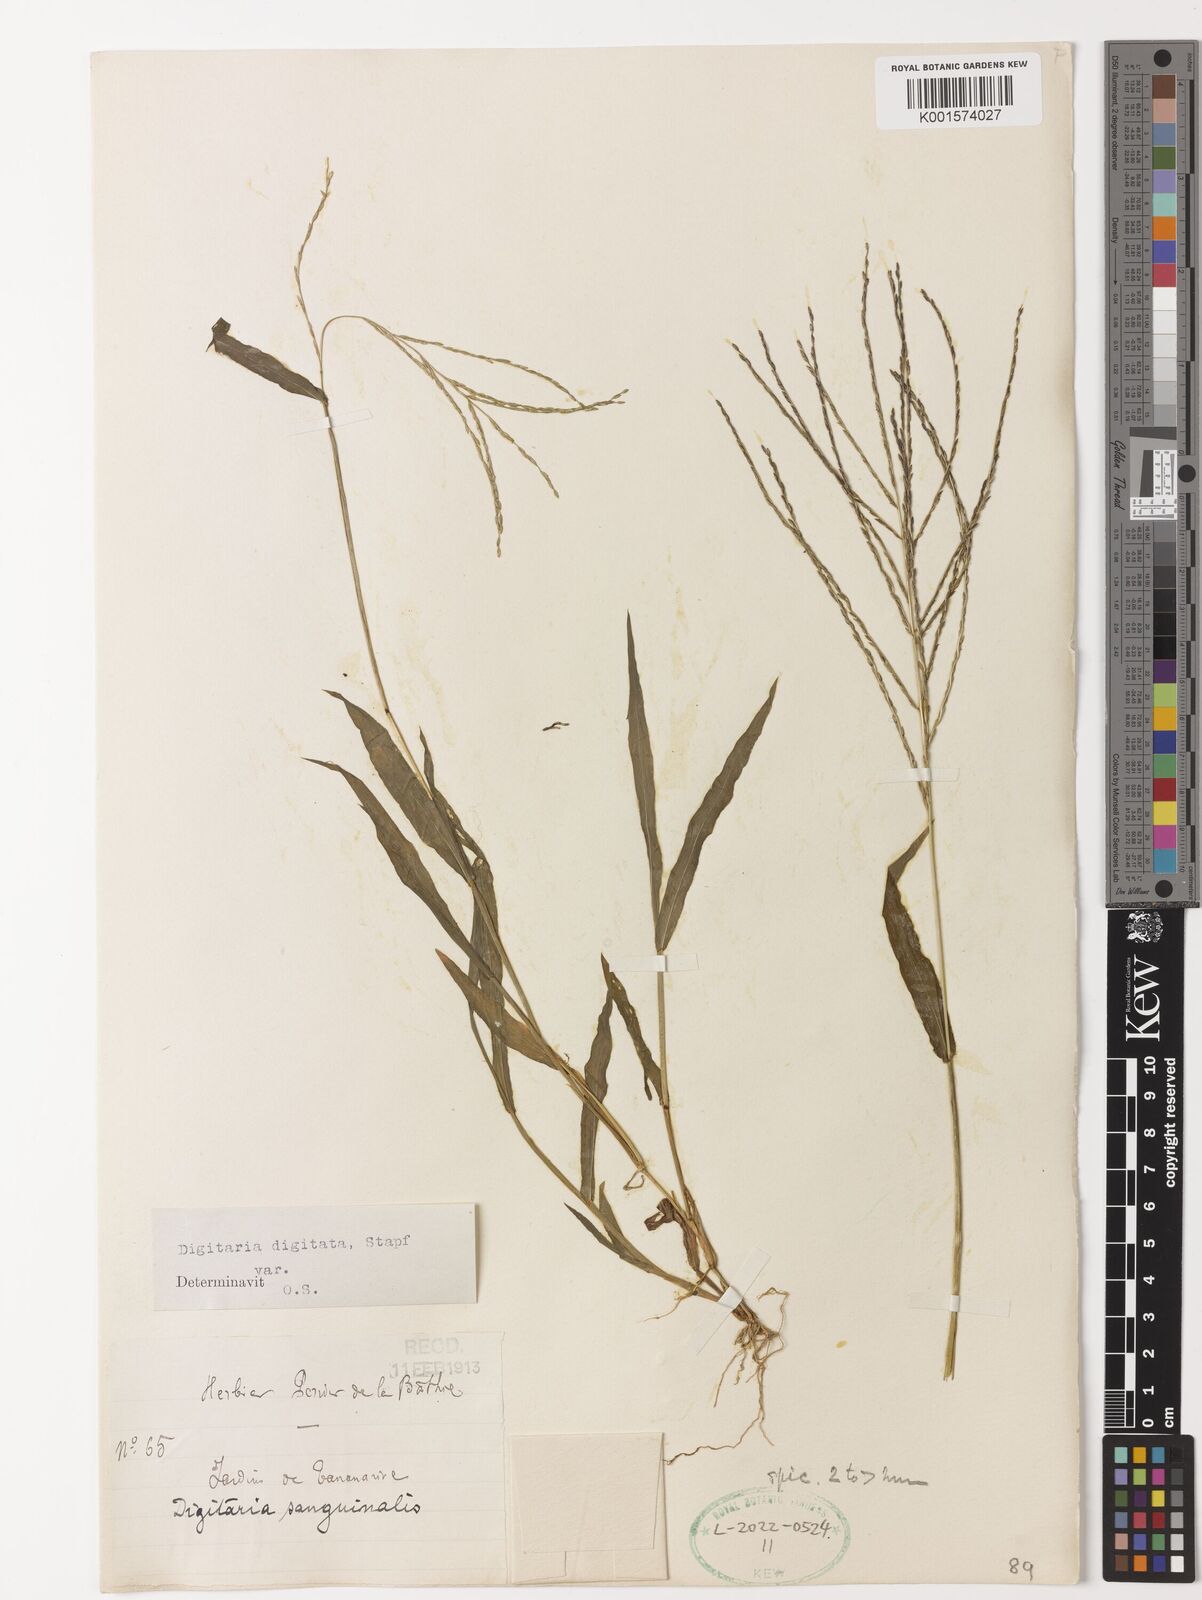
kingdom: Plantae
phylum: Tracheophyta
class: Liliopsida
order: Poales
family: Poaceae
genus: Digitaria
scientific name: Digitaria horizontalis
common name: Jamaican crabgrass
